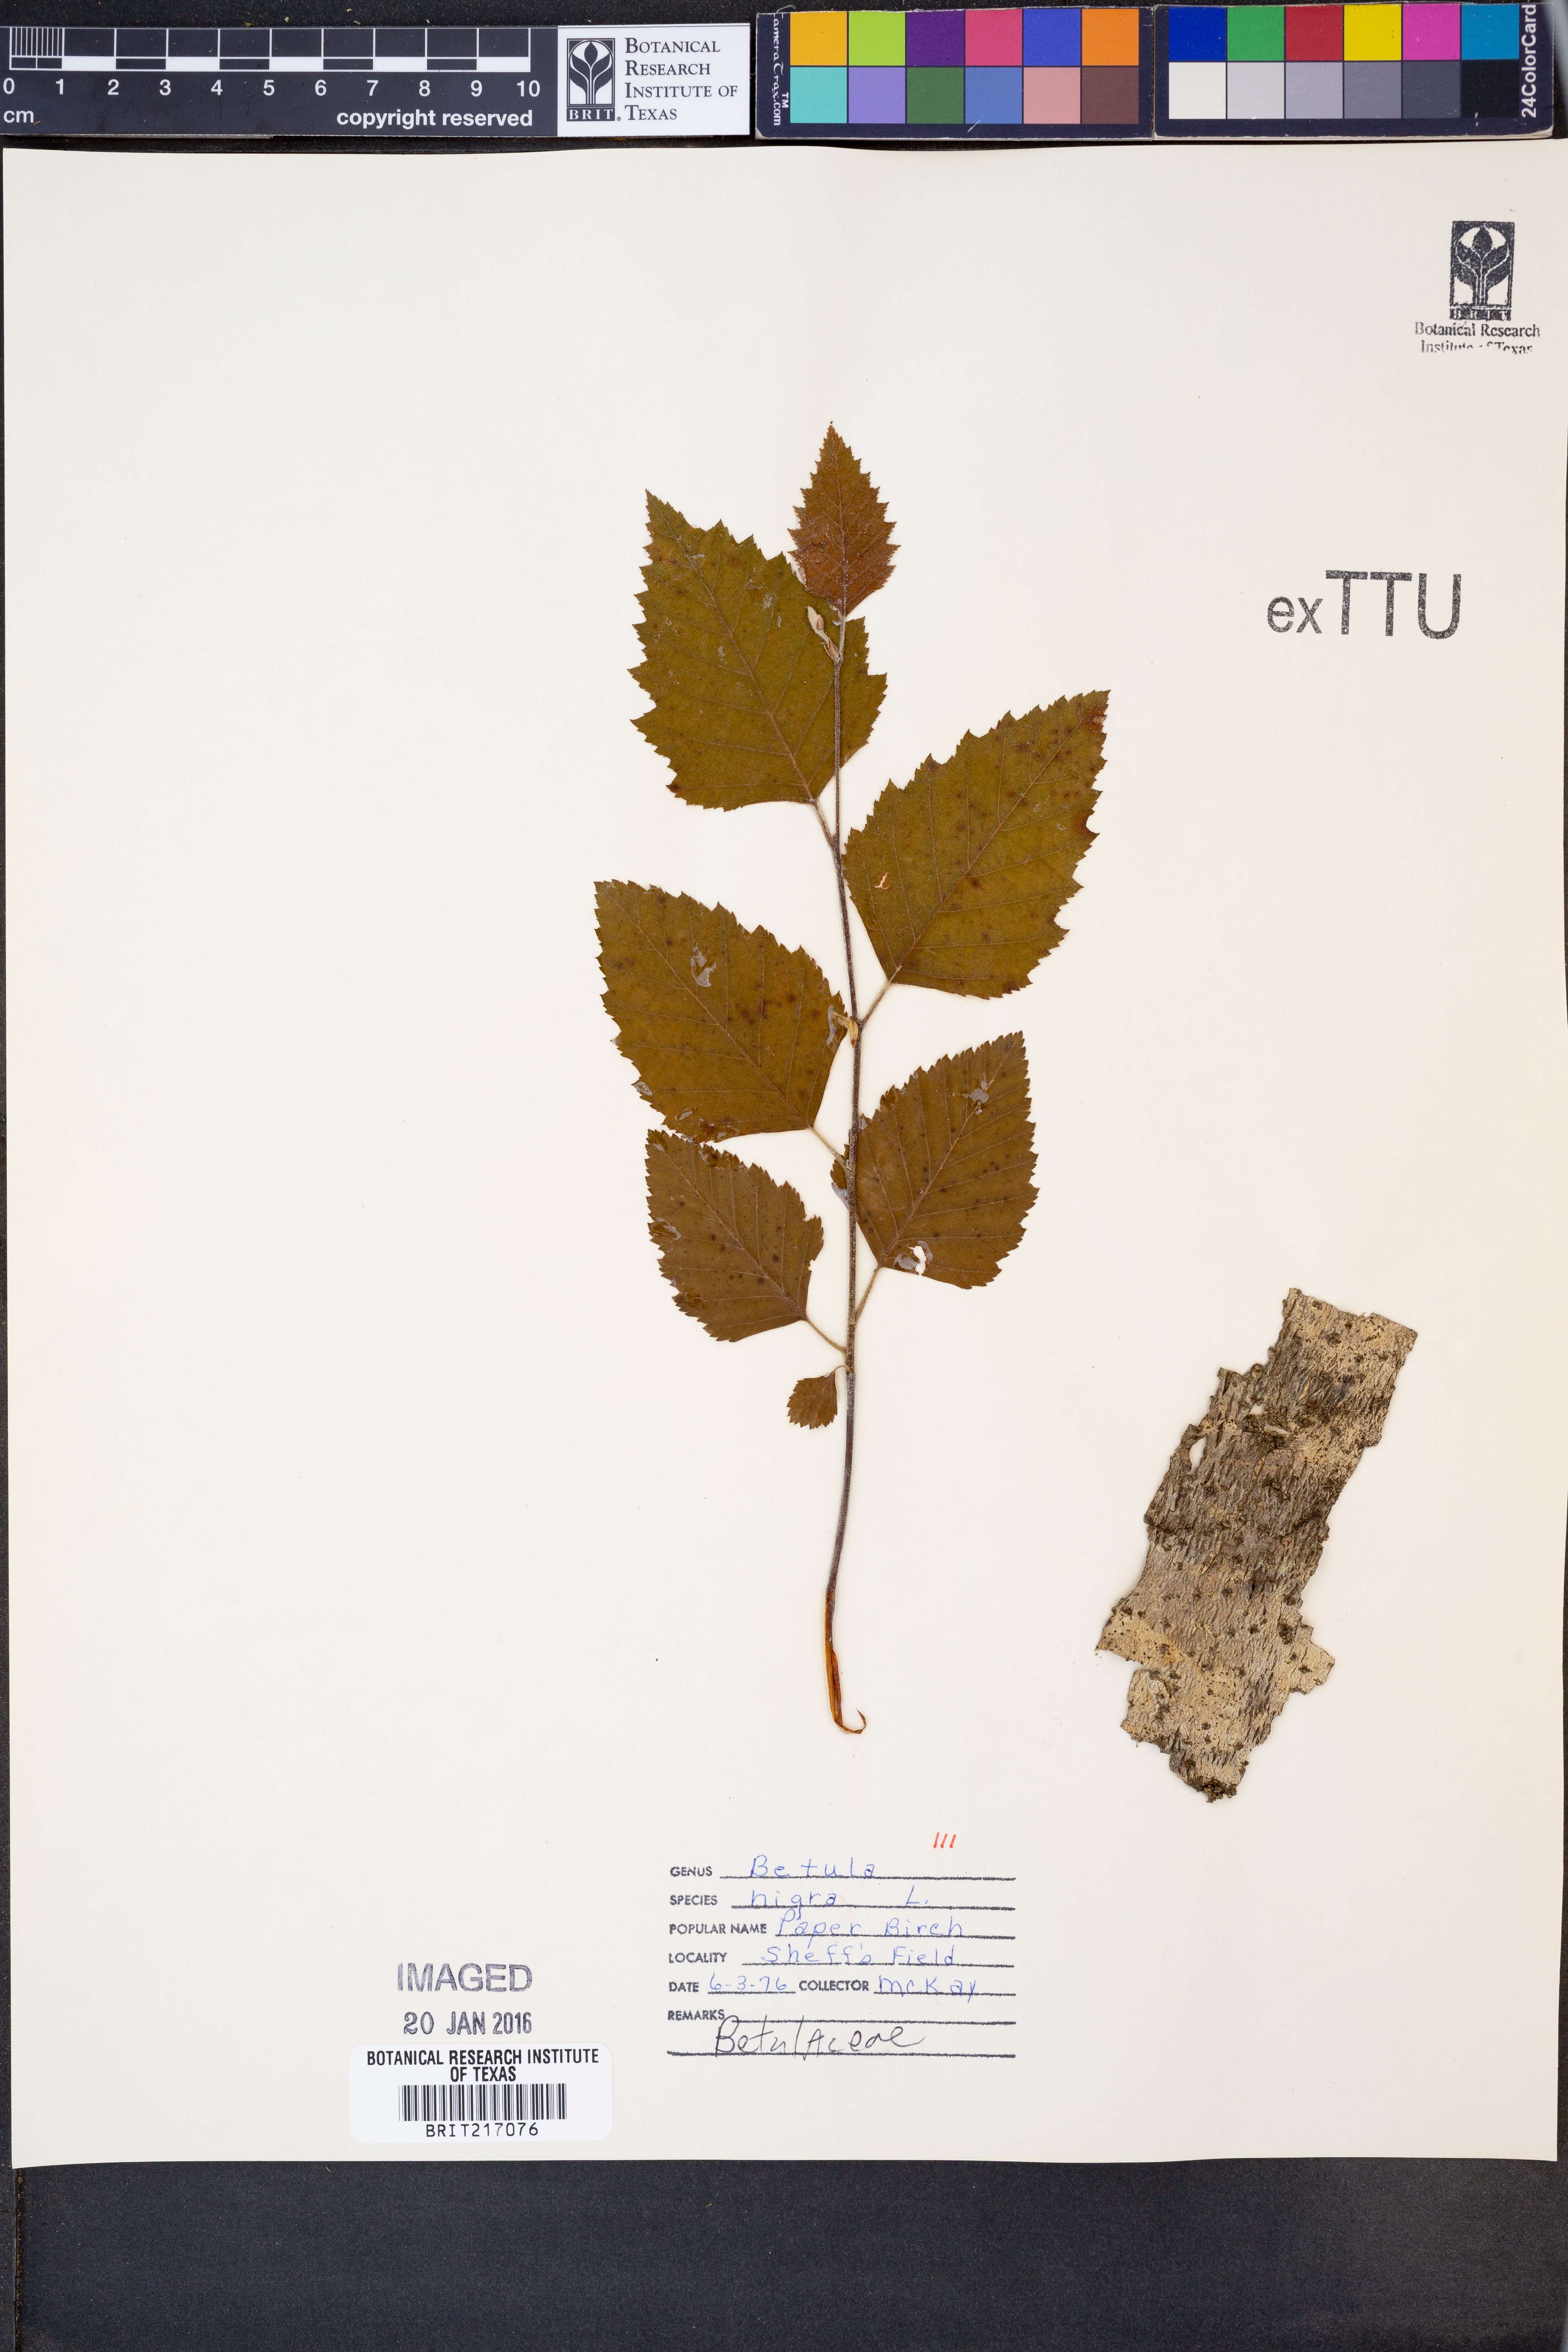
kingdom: Plantae
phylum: Tracheophyta
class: Magnoliopsida
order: Fagales
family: Betulaceae
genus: Betula
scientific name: Betula nigra
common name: Black birch
